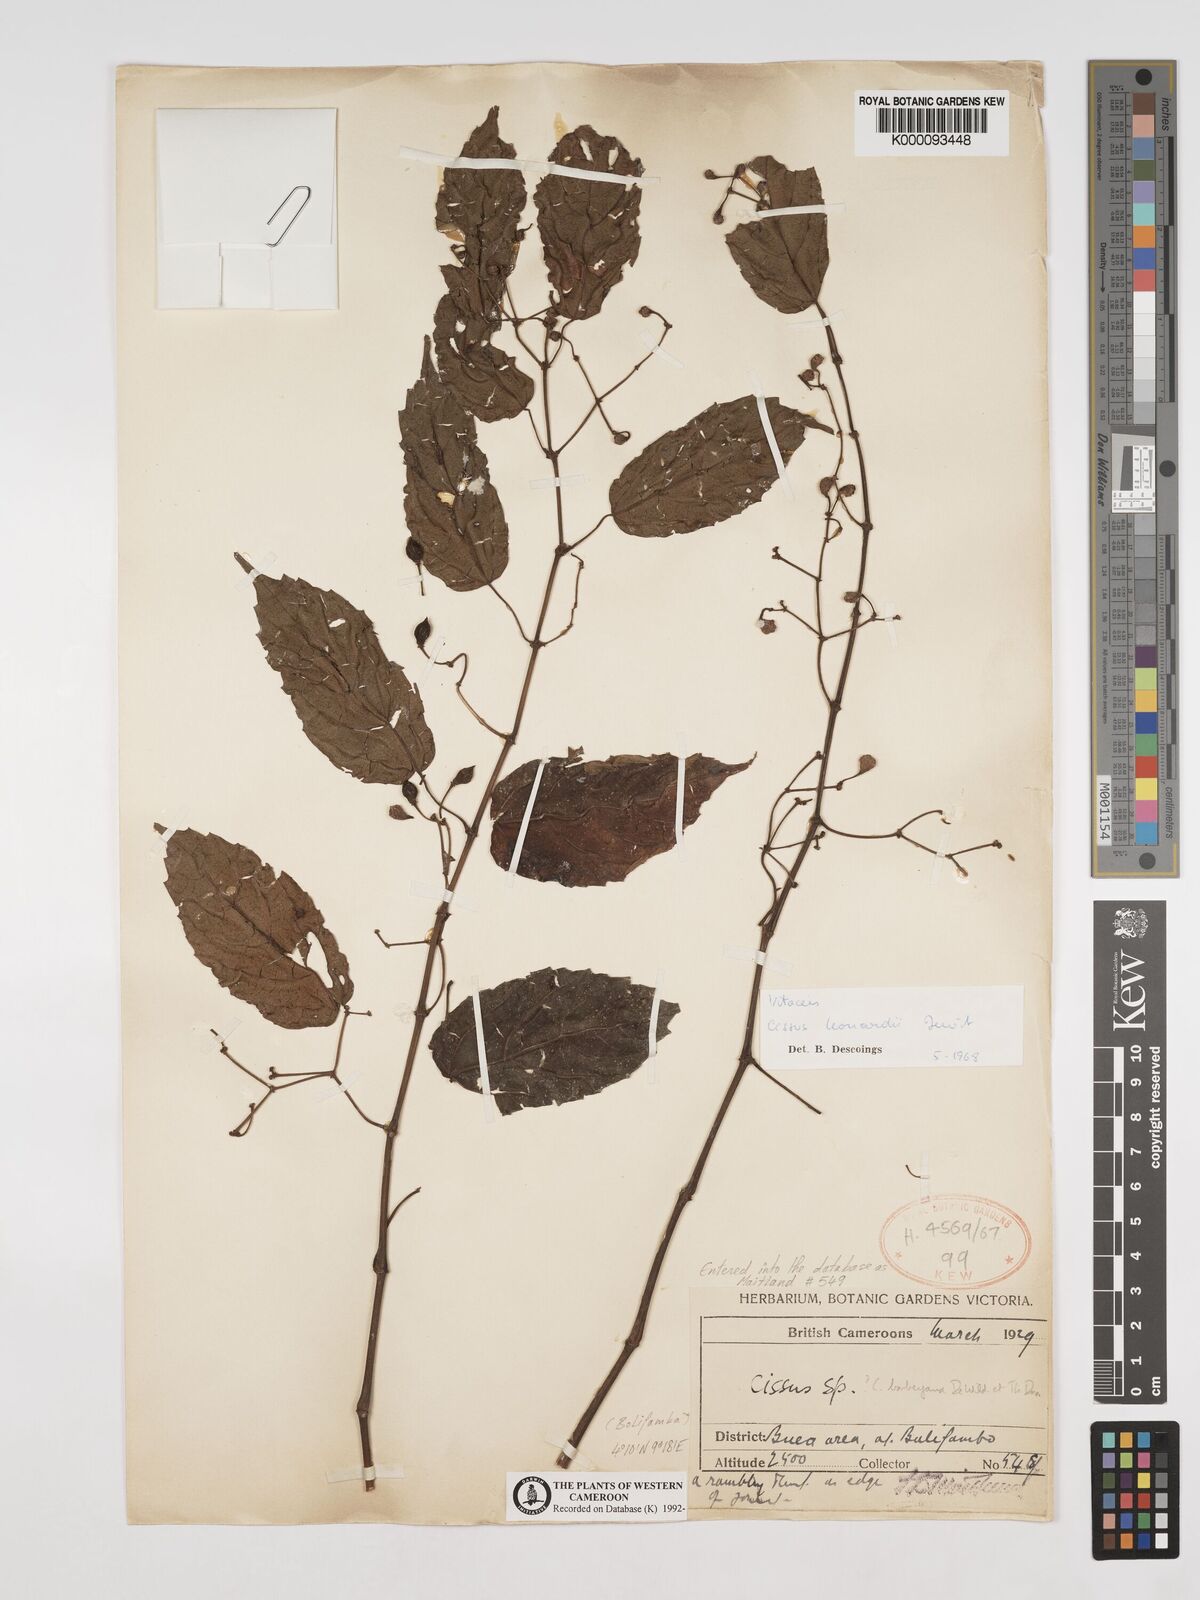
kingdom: Plantae
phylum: Tracheophyta
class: Magnoliopsida
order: Vitales
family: Vitaceae
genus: Cissus
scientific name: Cissus leonardii
